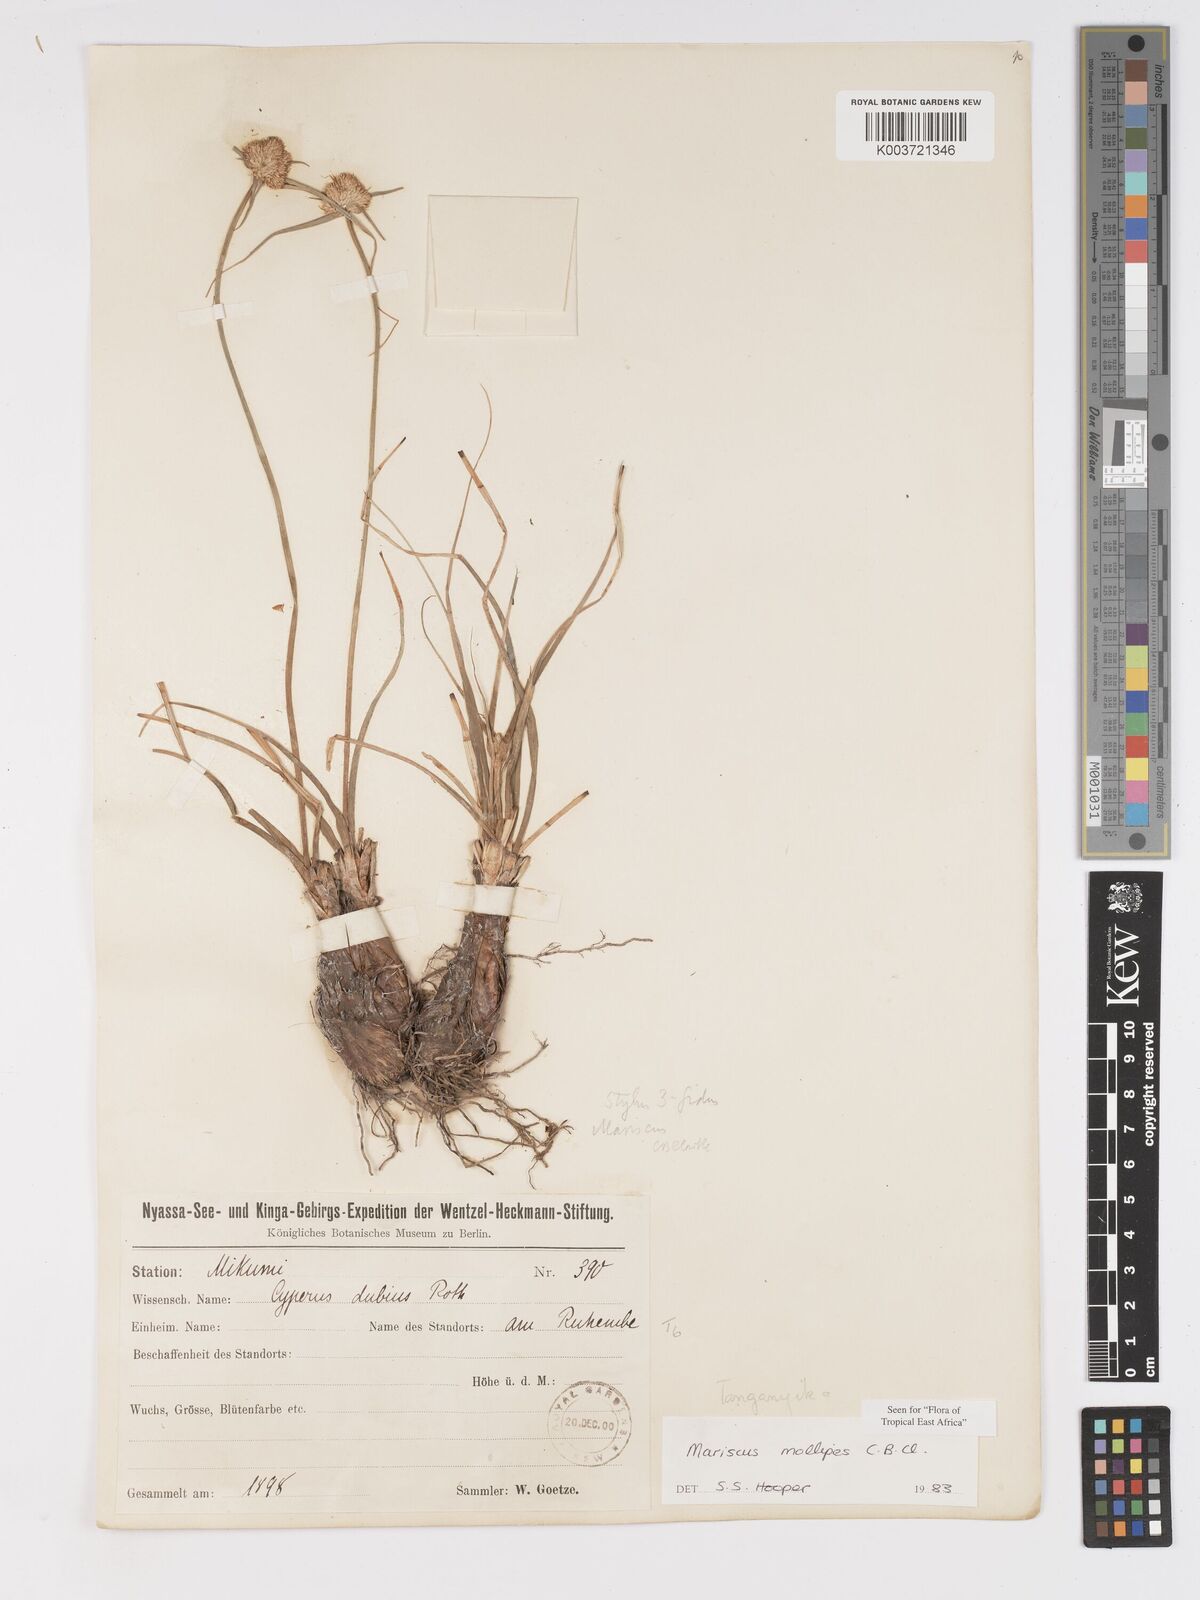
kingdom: Plantae
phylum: Tracheophyta
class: Liliopsida
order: Poales
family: Cyperaceae
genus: Cyperus
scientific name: Cyperus mollipes
